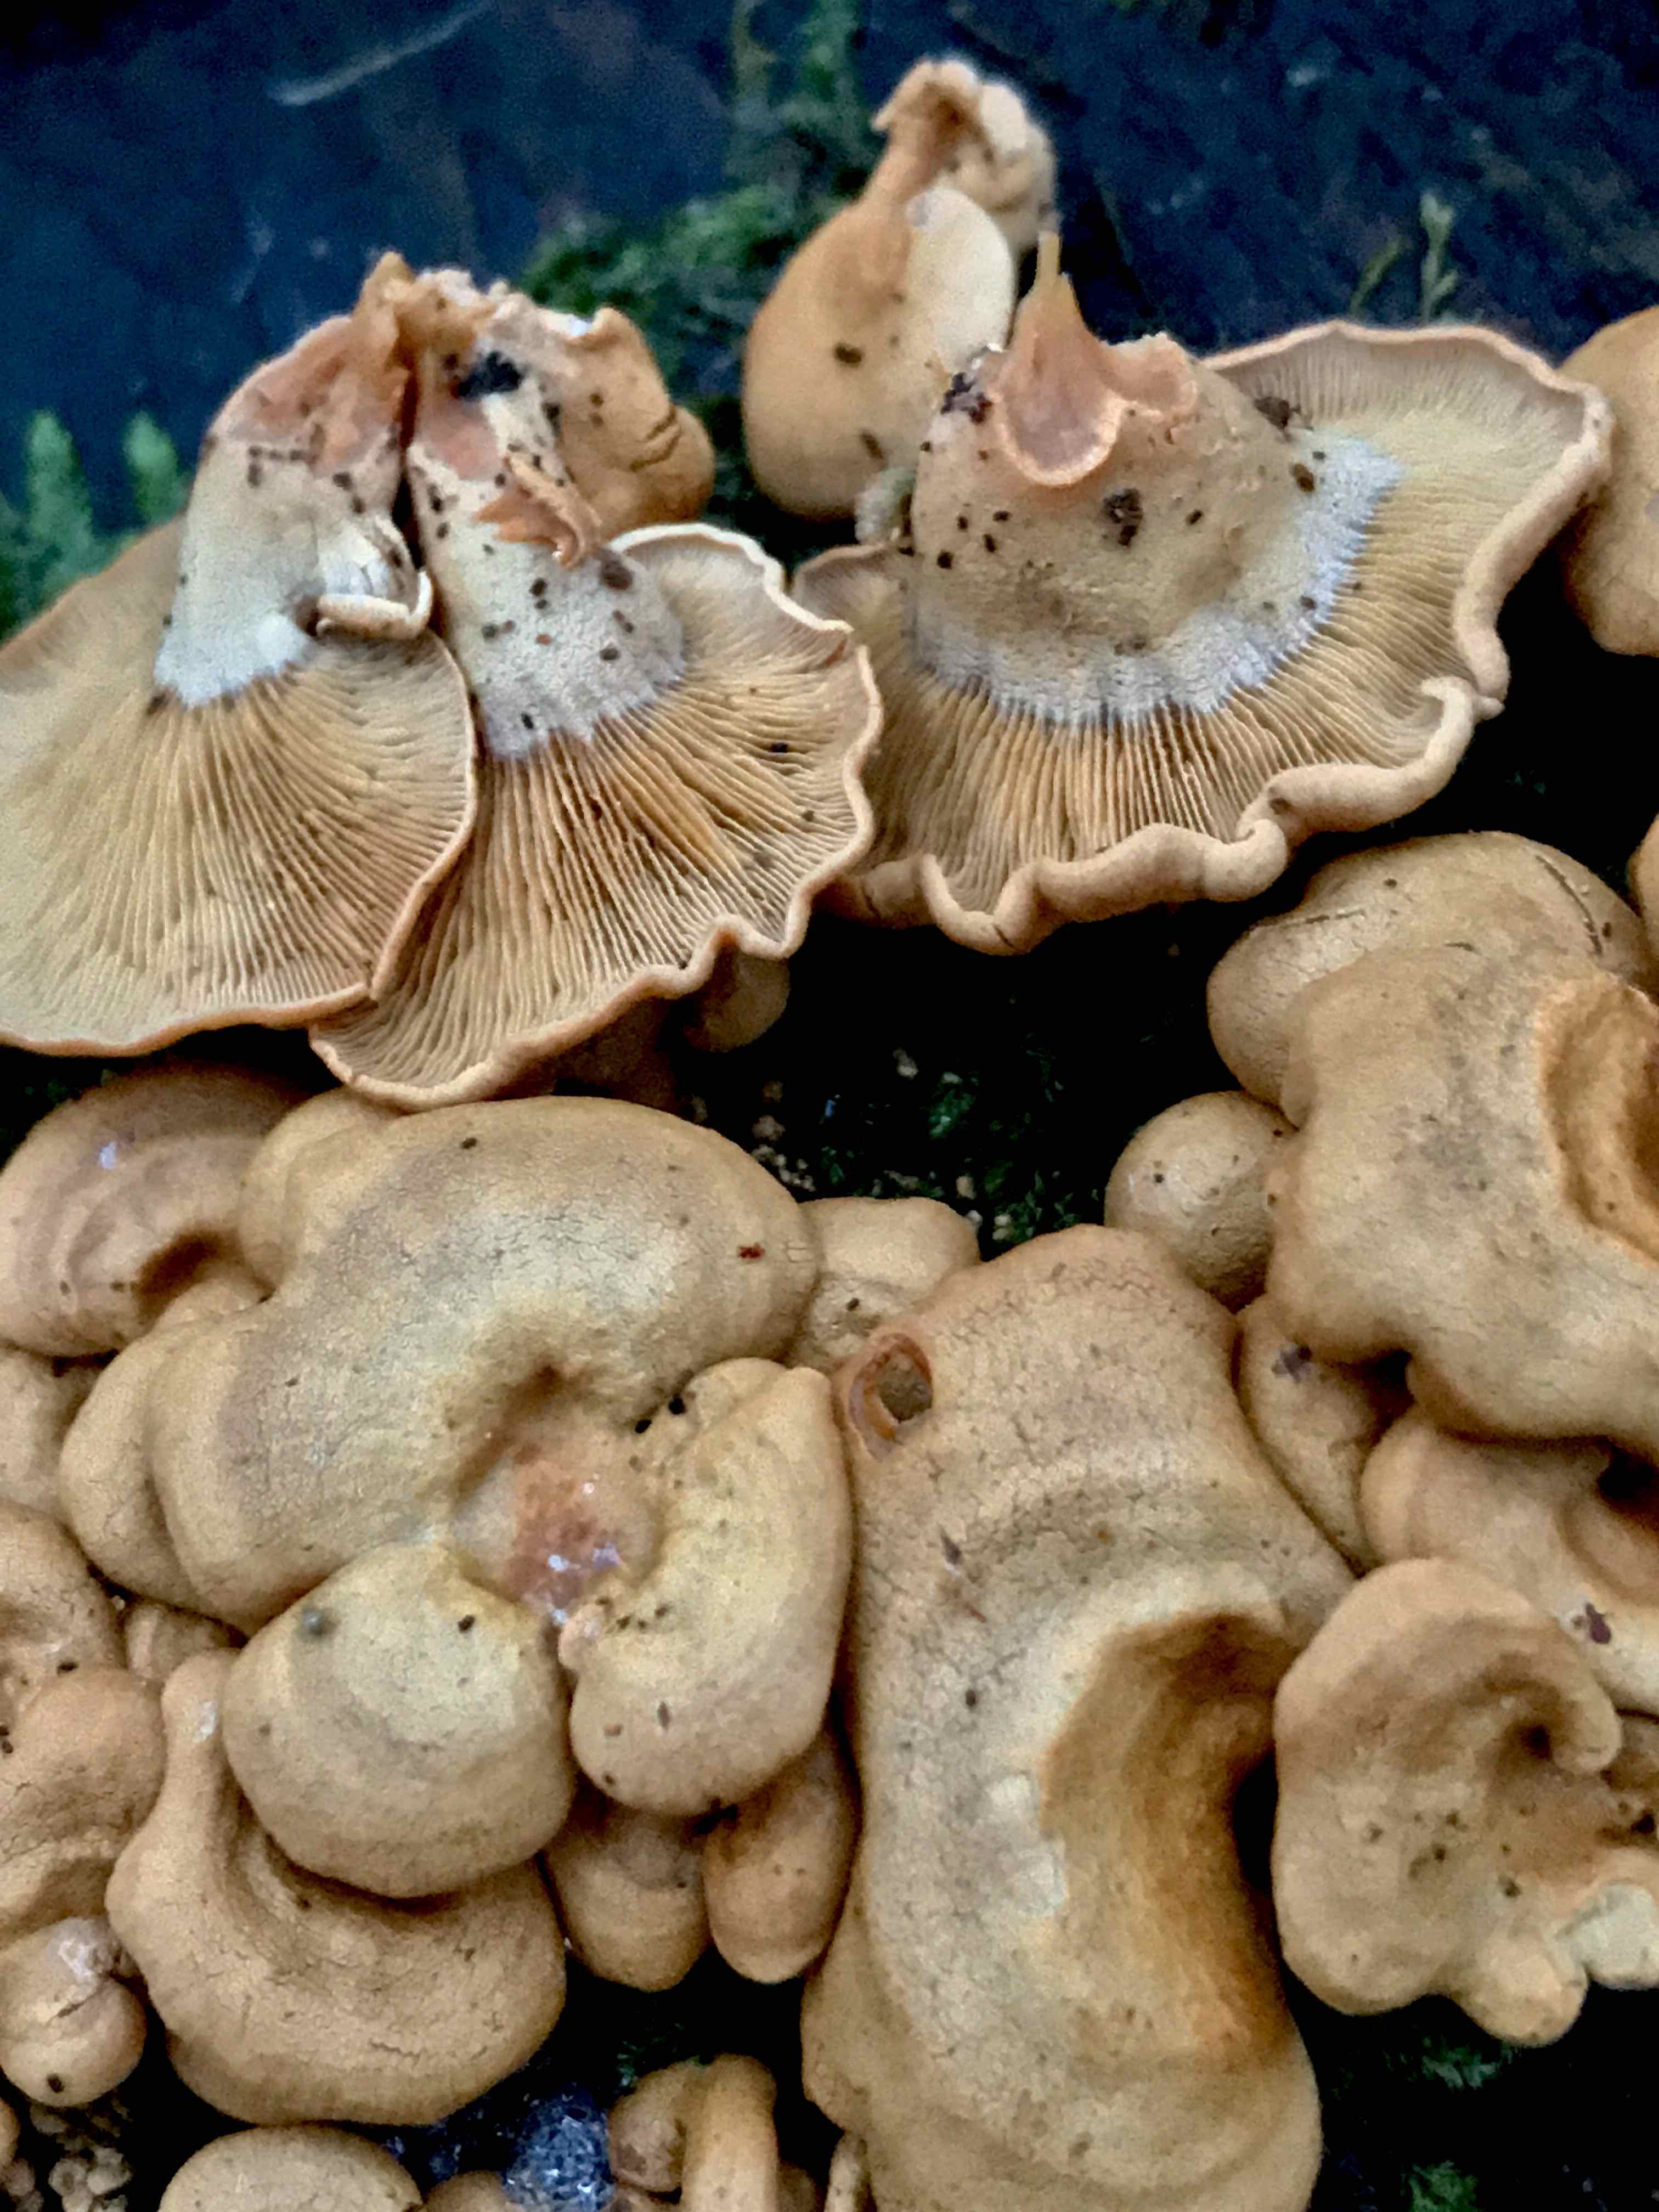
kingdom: Fungi
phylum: Basidiomycota
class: Agaricomycetes
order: Agaricales
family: Mycenaceae
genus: Panellus
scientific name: Panellus stipticus
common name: kliddet epaulethat
